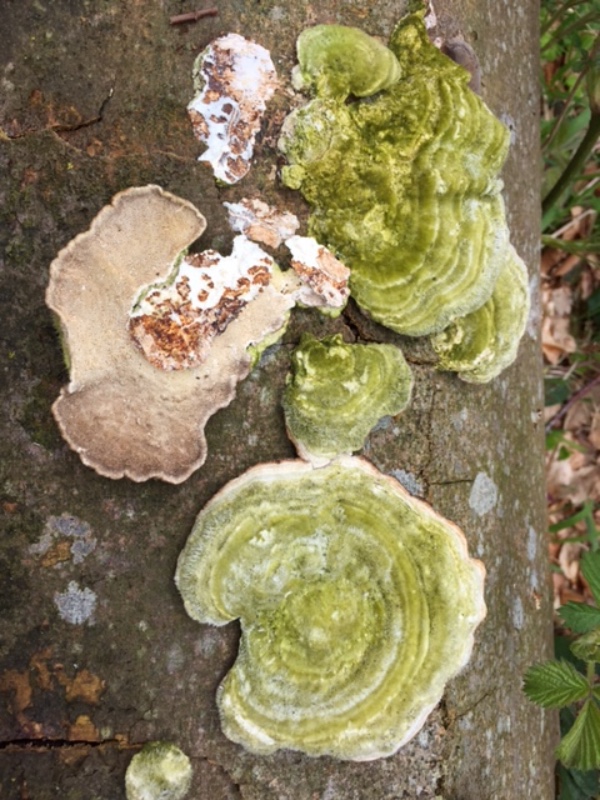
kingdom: Fungi
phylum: Basidiomycota
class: Agaricomycetes
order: Polyporales
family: Polyporaceae
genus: Trametes
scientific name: Trametes hirsuta
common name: håret læderporesvamp
